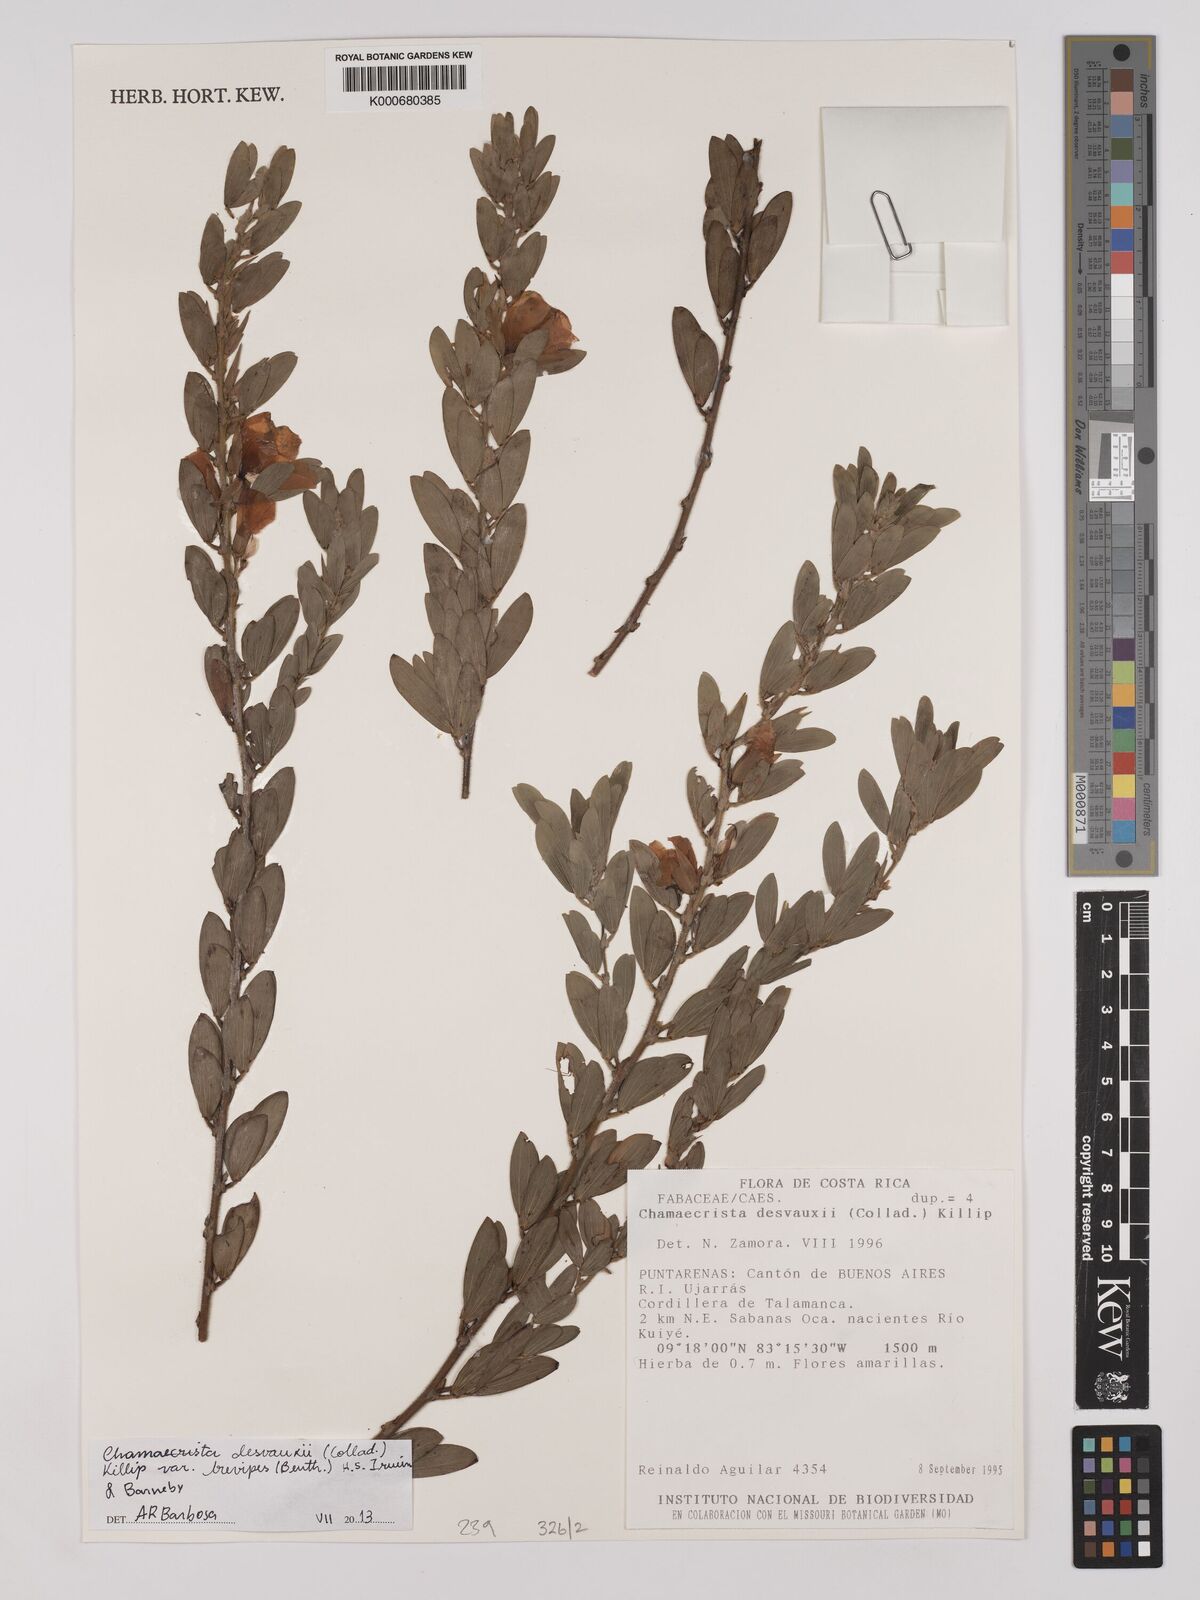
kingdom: Plantae
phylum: Tracheophyta
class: Magnoliopsida
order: Fabales
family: Fabaceae
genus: Chamaecrista
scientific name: Chamaecrista desvauxii
